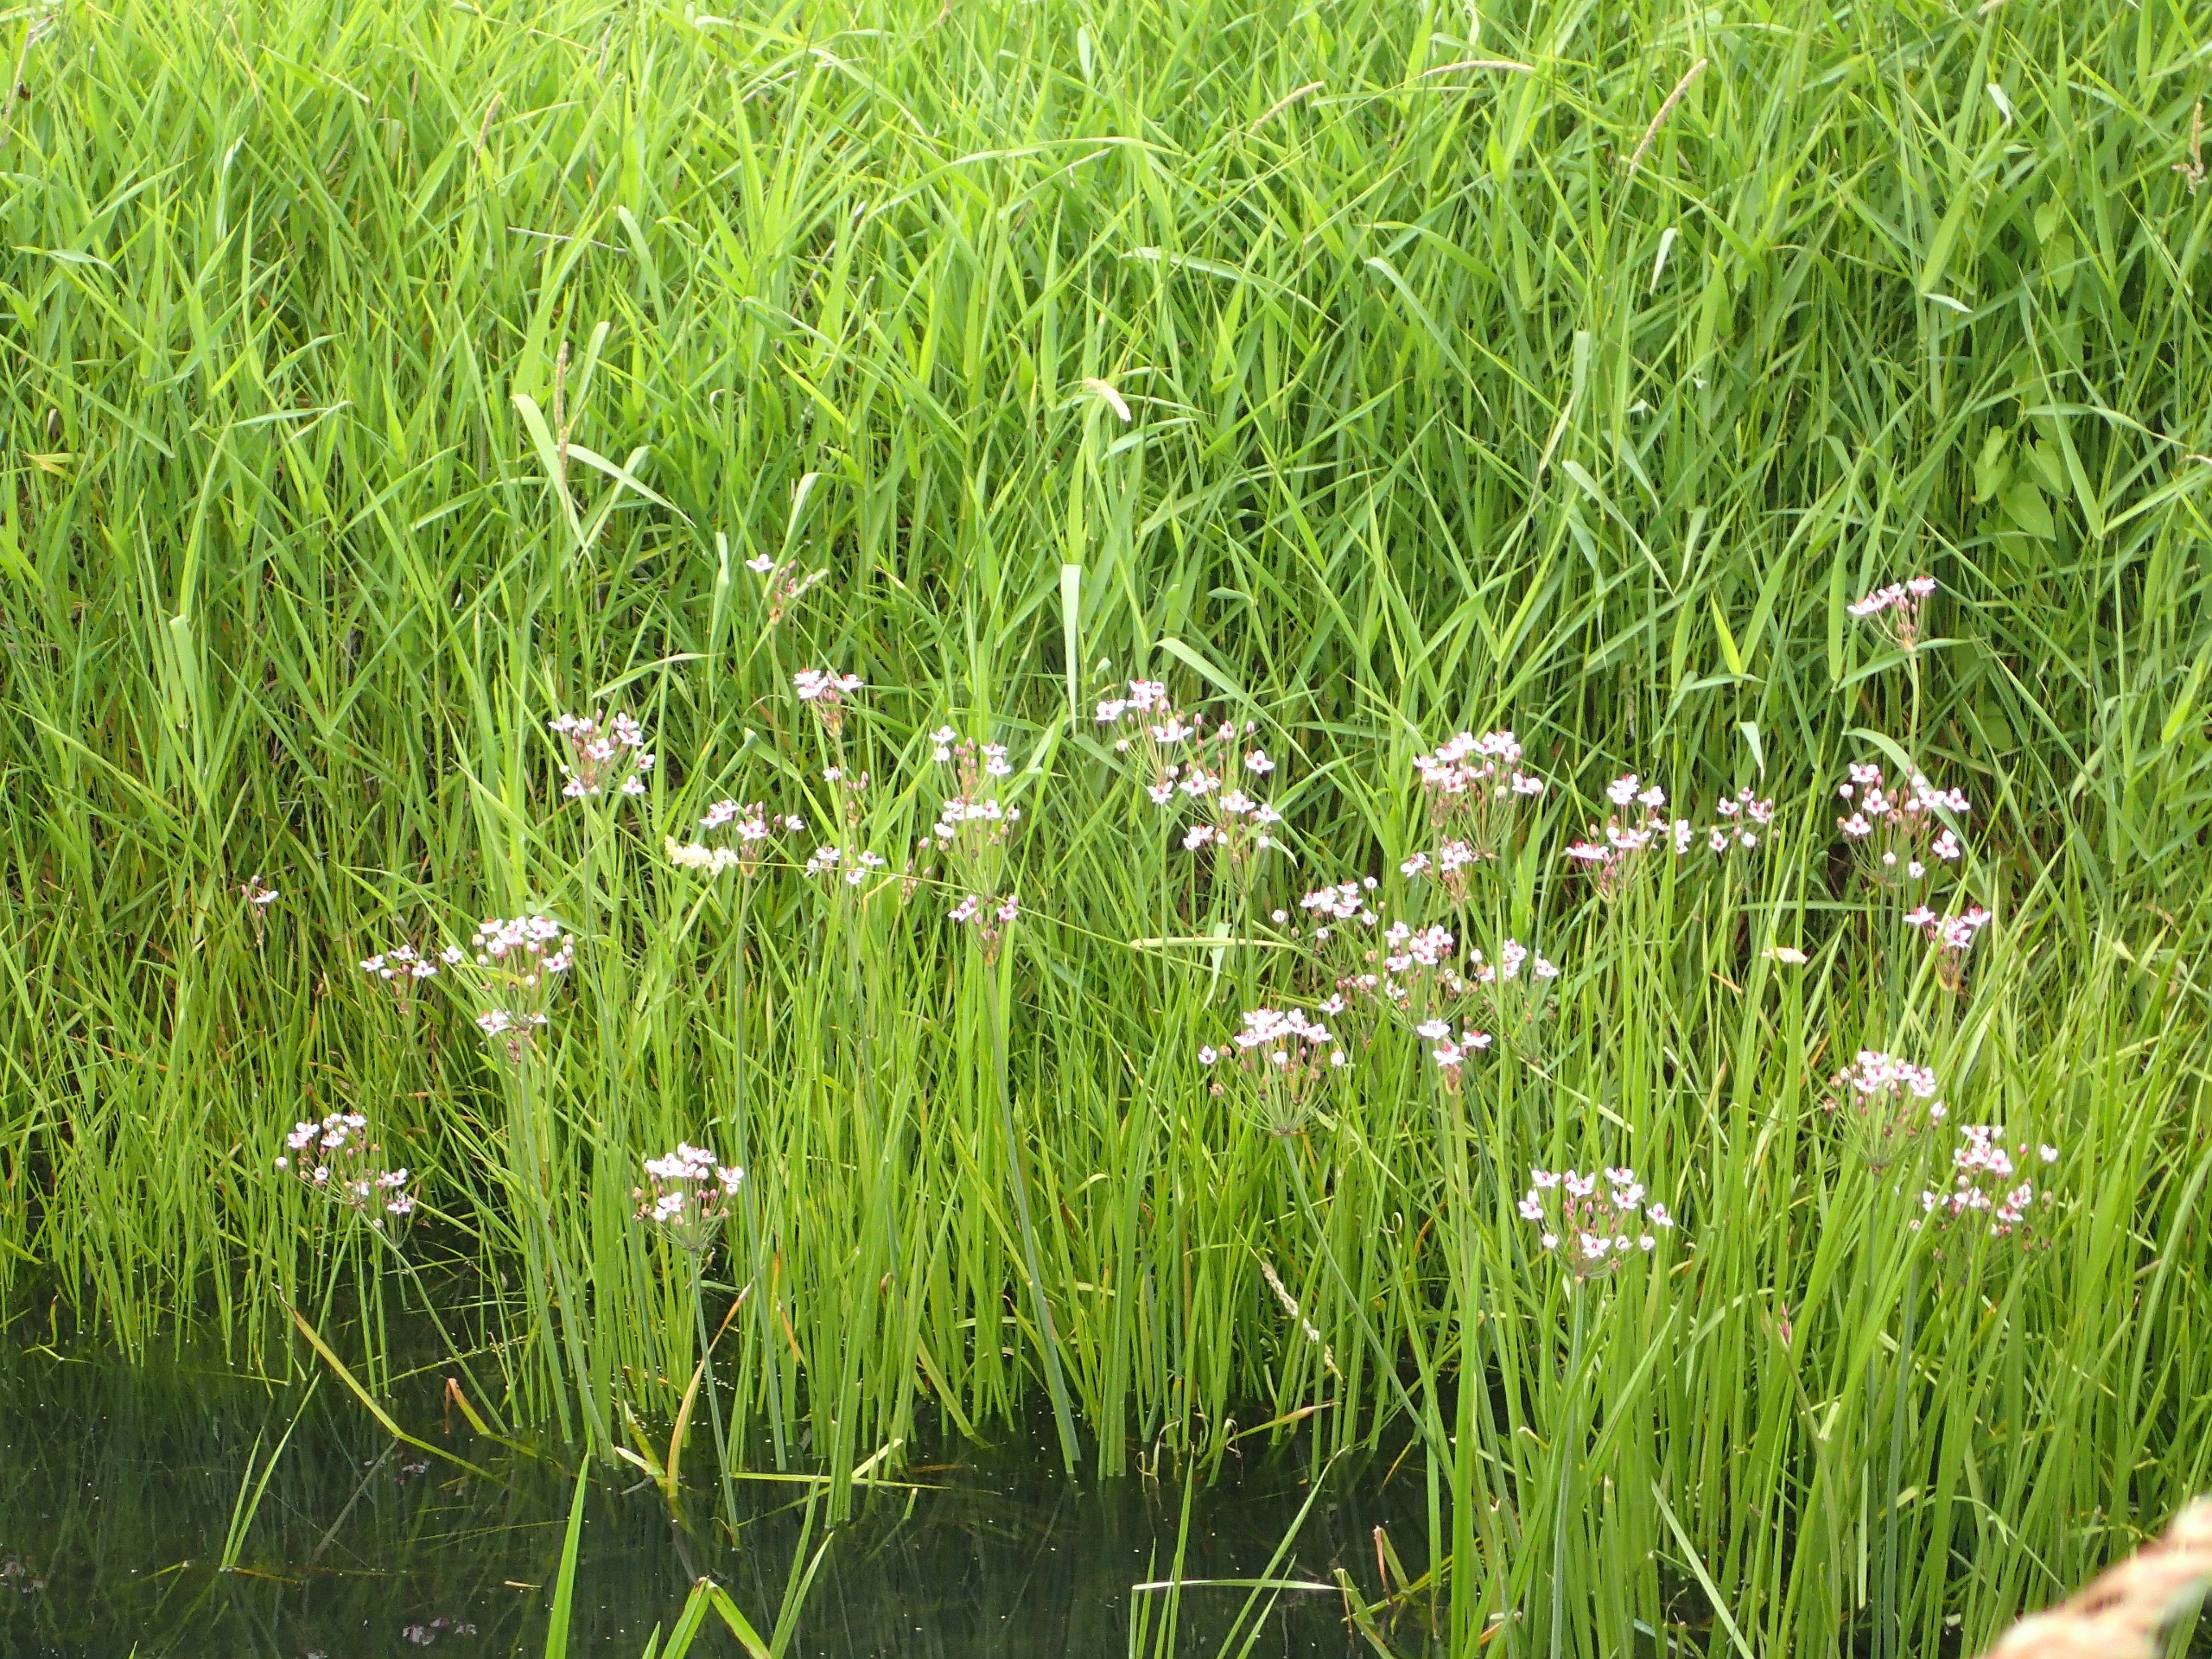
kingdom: Plantae
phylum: Tracheophyta
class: Liliopsida
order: Alismatales
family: Butomaceae
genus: Butomus
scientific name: Butomus umbellatus
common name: Brudelys
